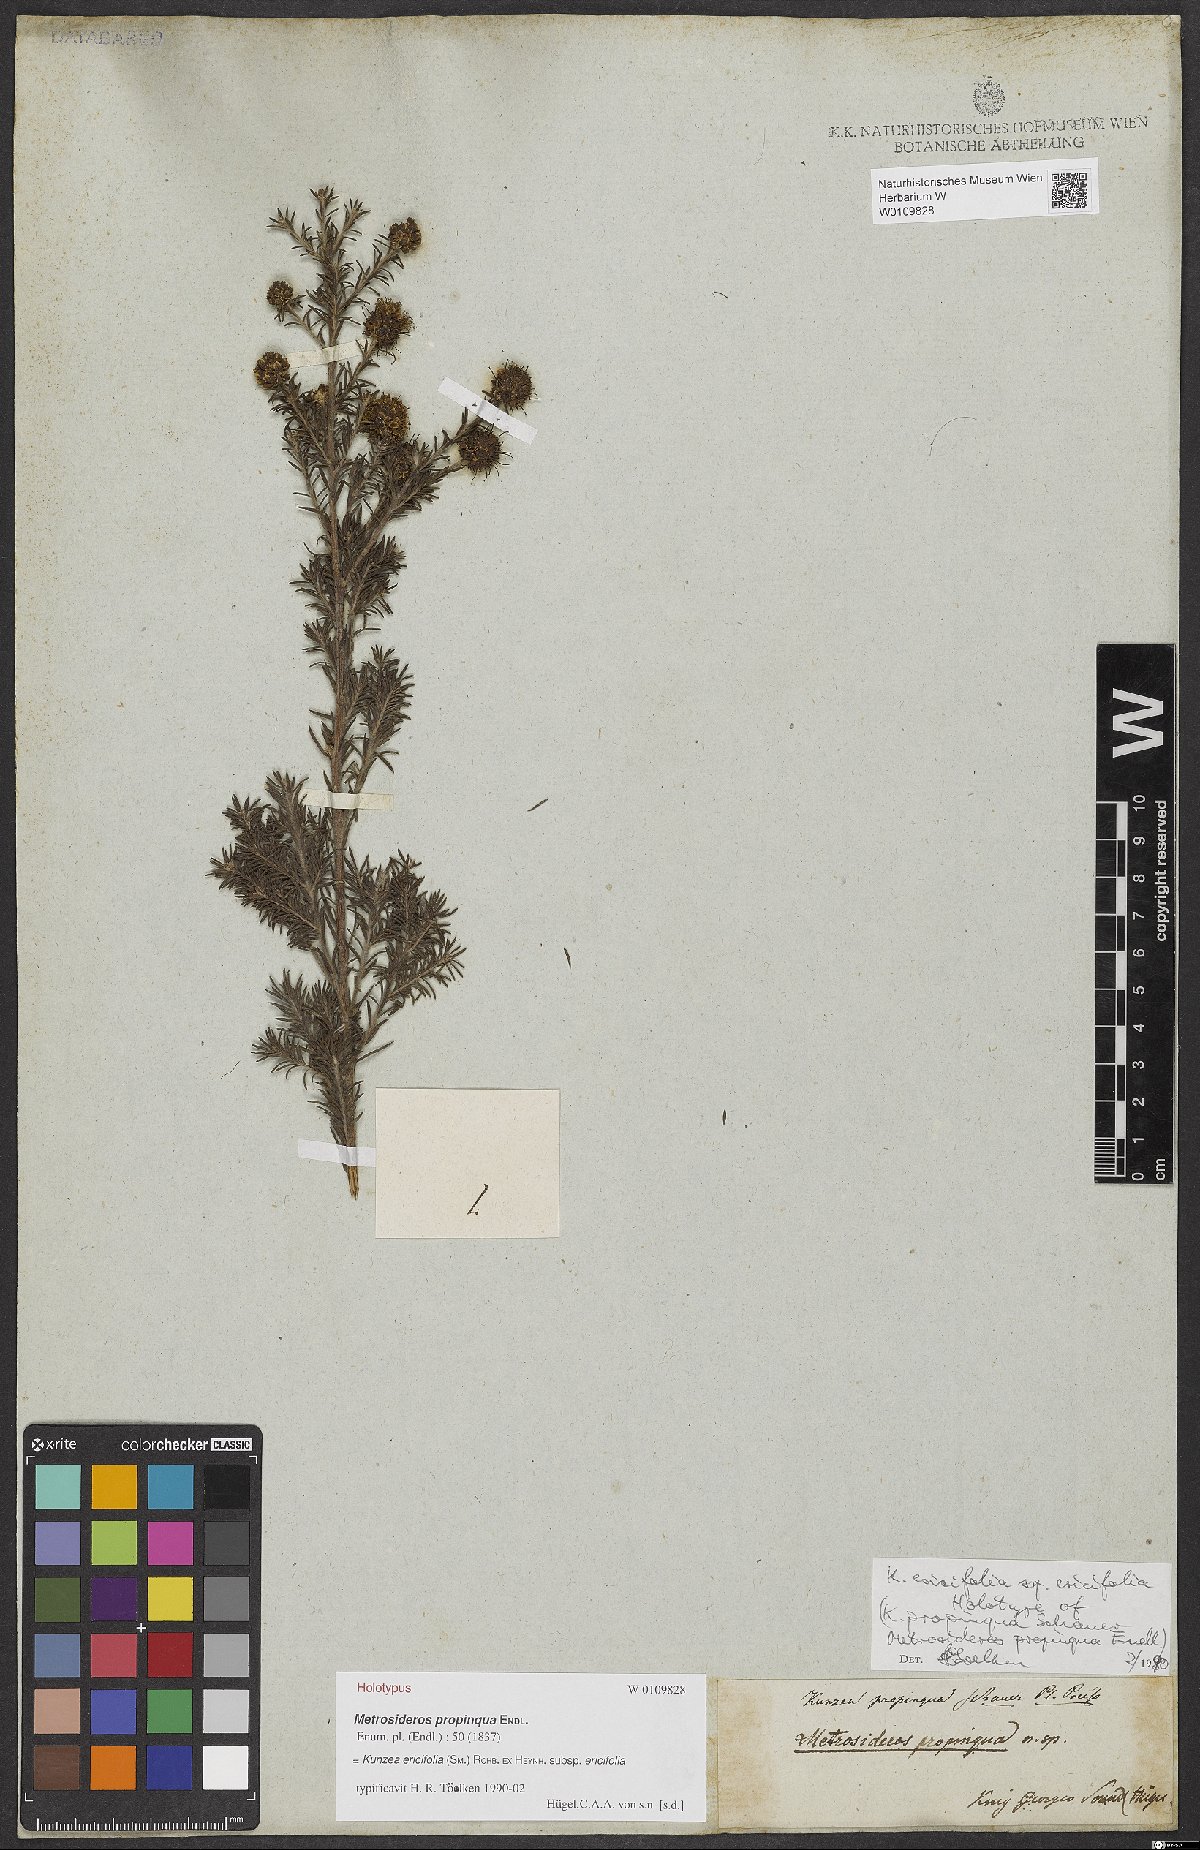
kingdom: Plantae
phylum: Tracheophyta
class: Magnoliopsida
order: Myrtales
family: Myrtaceae
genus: Kunzea
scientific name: Kunzea ericifolia
